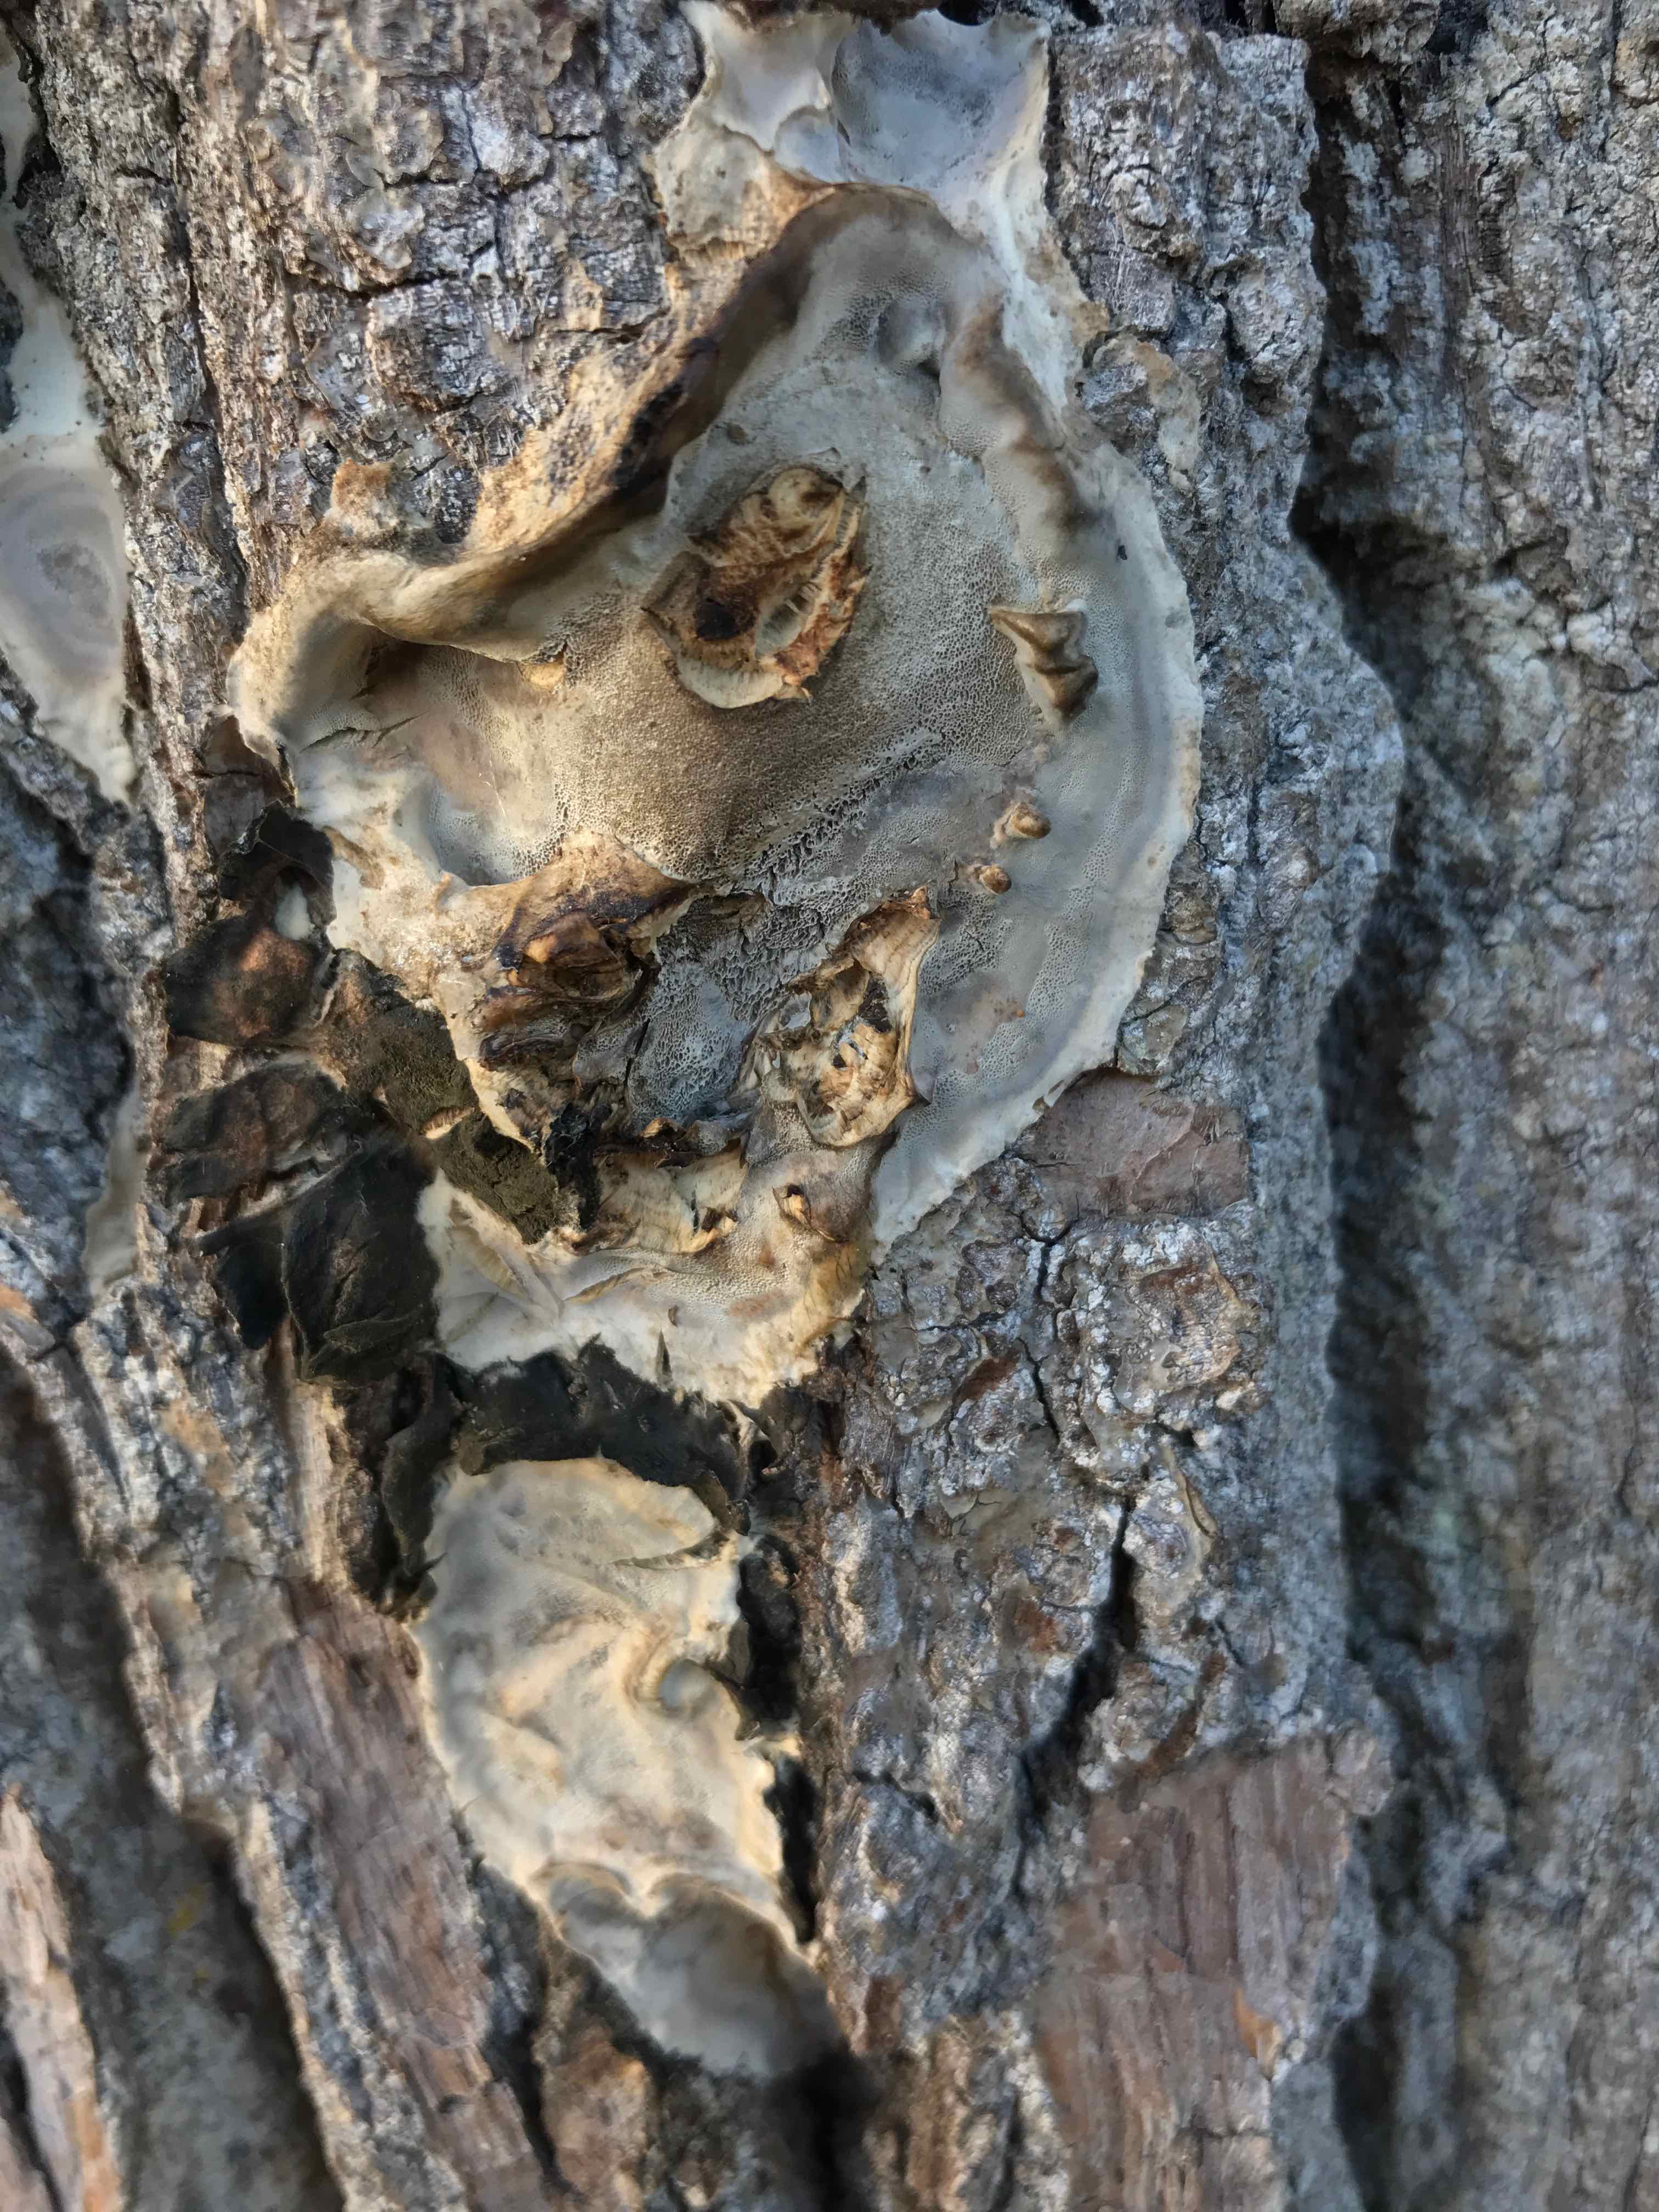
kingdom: Fungi
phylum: Basidiomycota
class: Agaricomycetes
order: Polyporales
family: Phanerochaetaceae
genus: Bjerkandera
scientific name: Bjerkandera adusta
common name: sveden sodporesvamp
